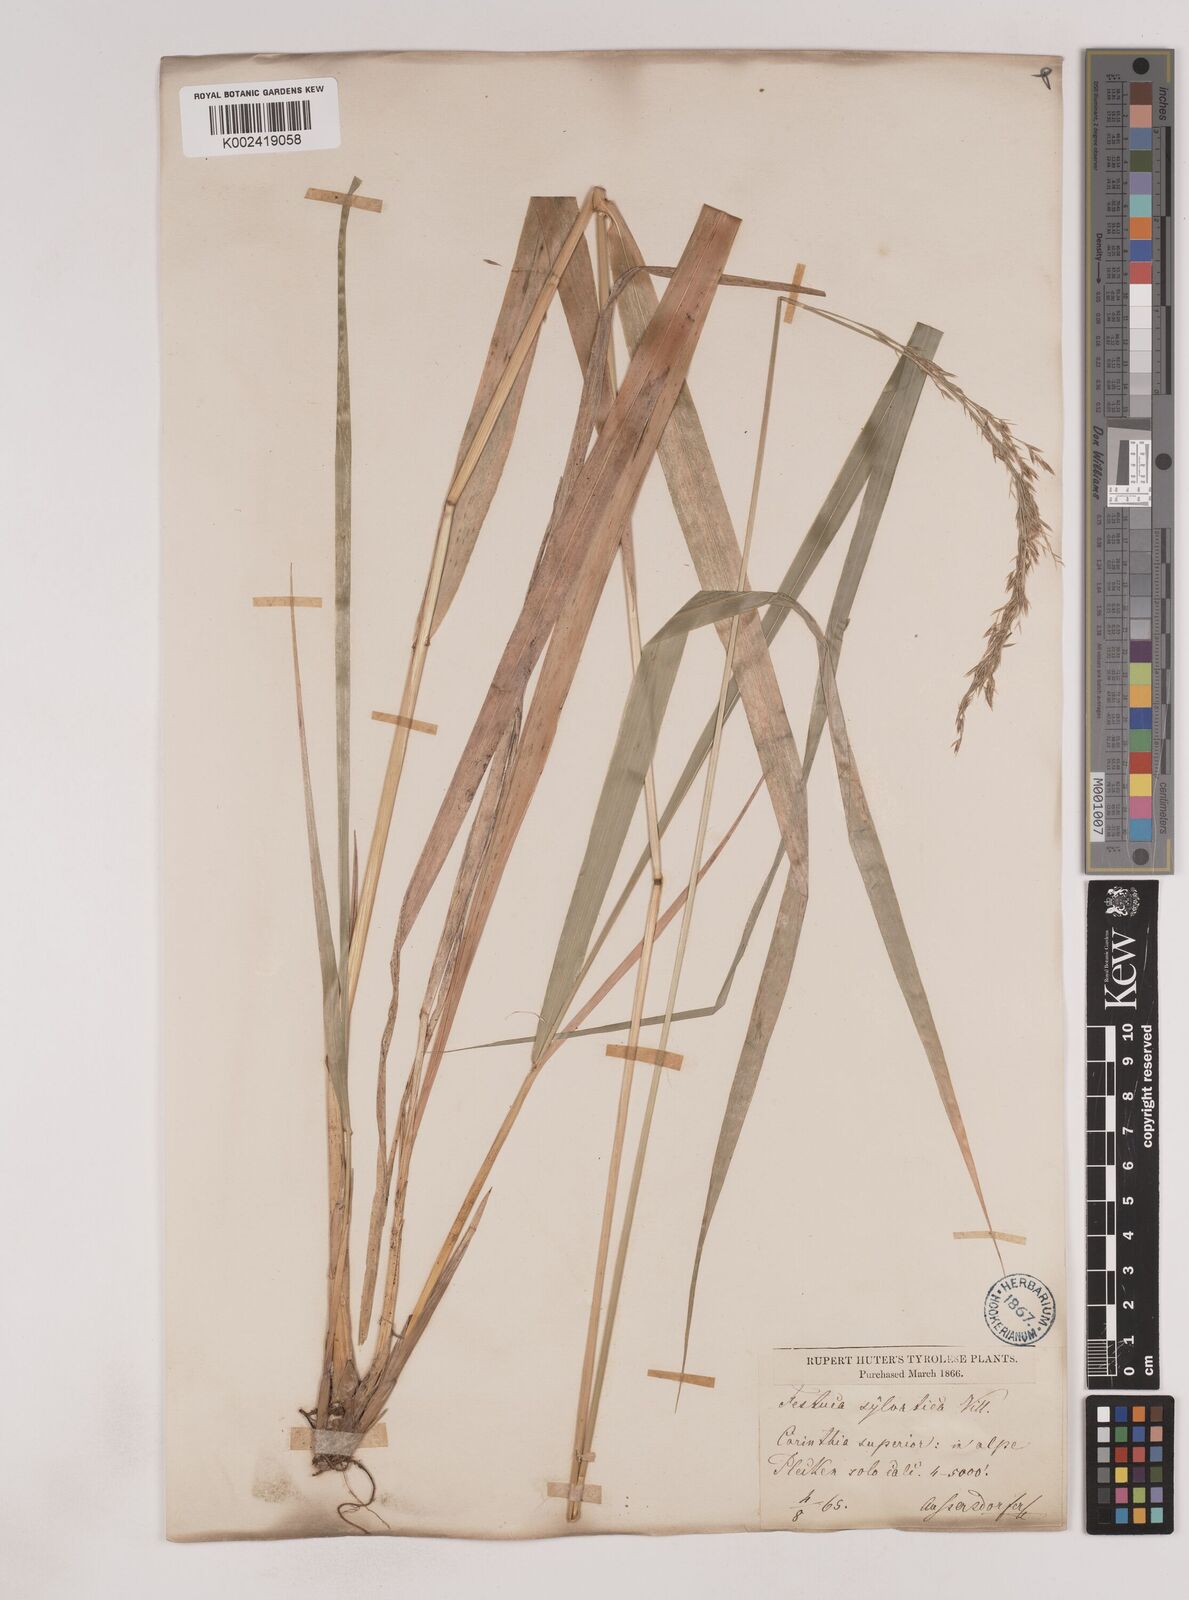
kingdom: Plantae
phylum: Tracheophyta
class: Liliopsida
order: Poales
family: Poaceae
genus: Festuca
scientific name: Festuca drymeja
